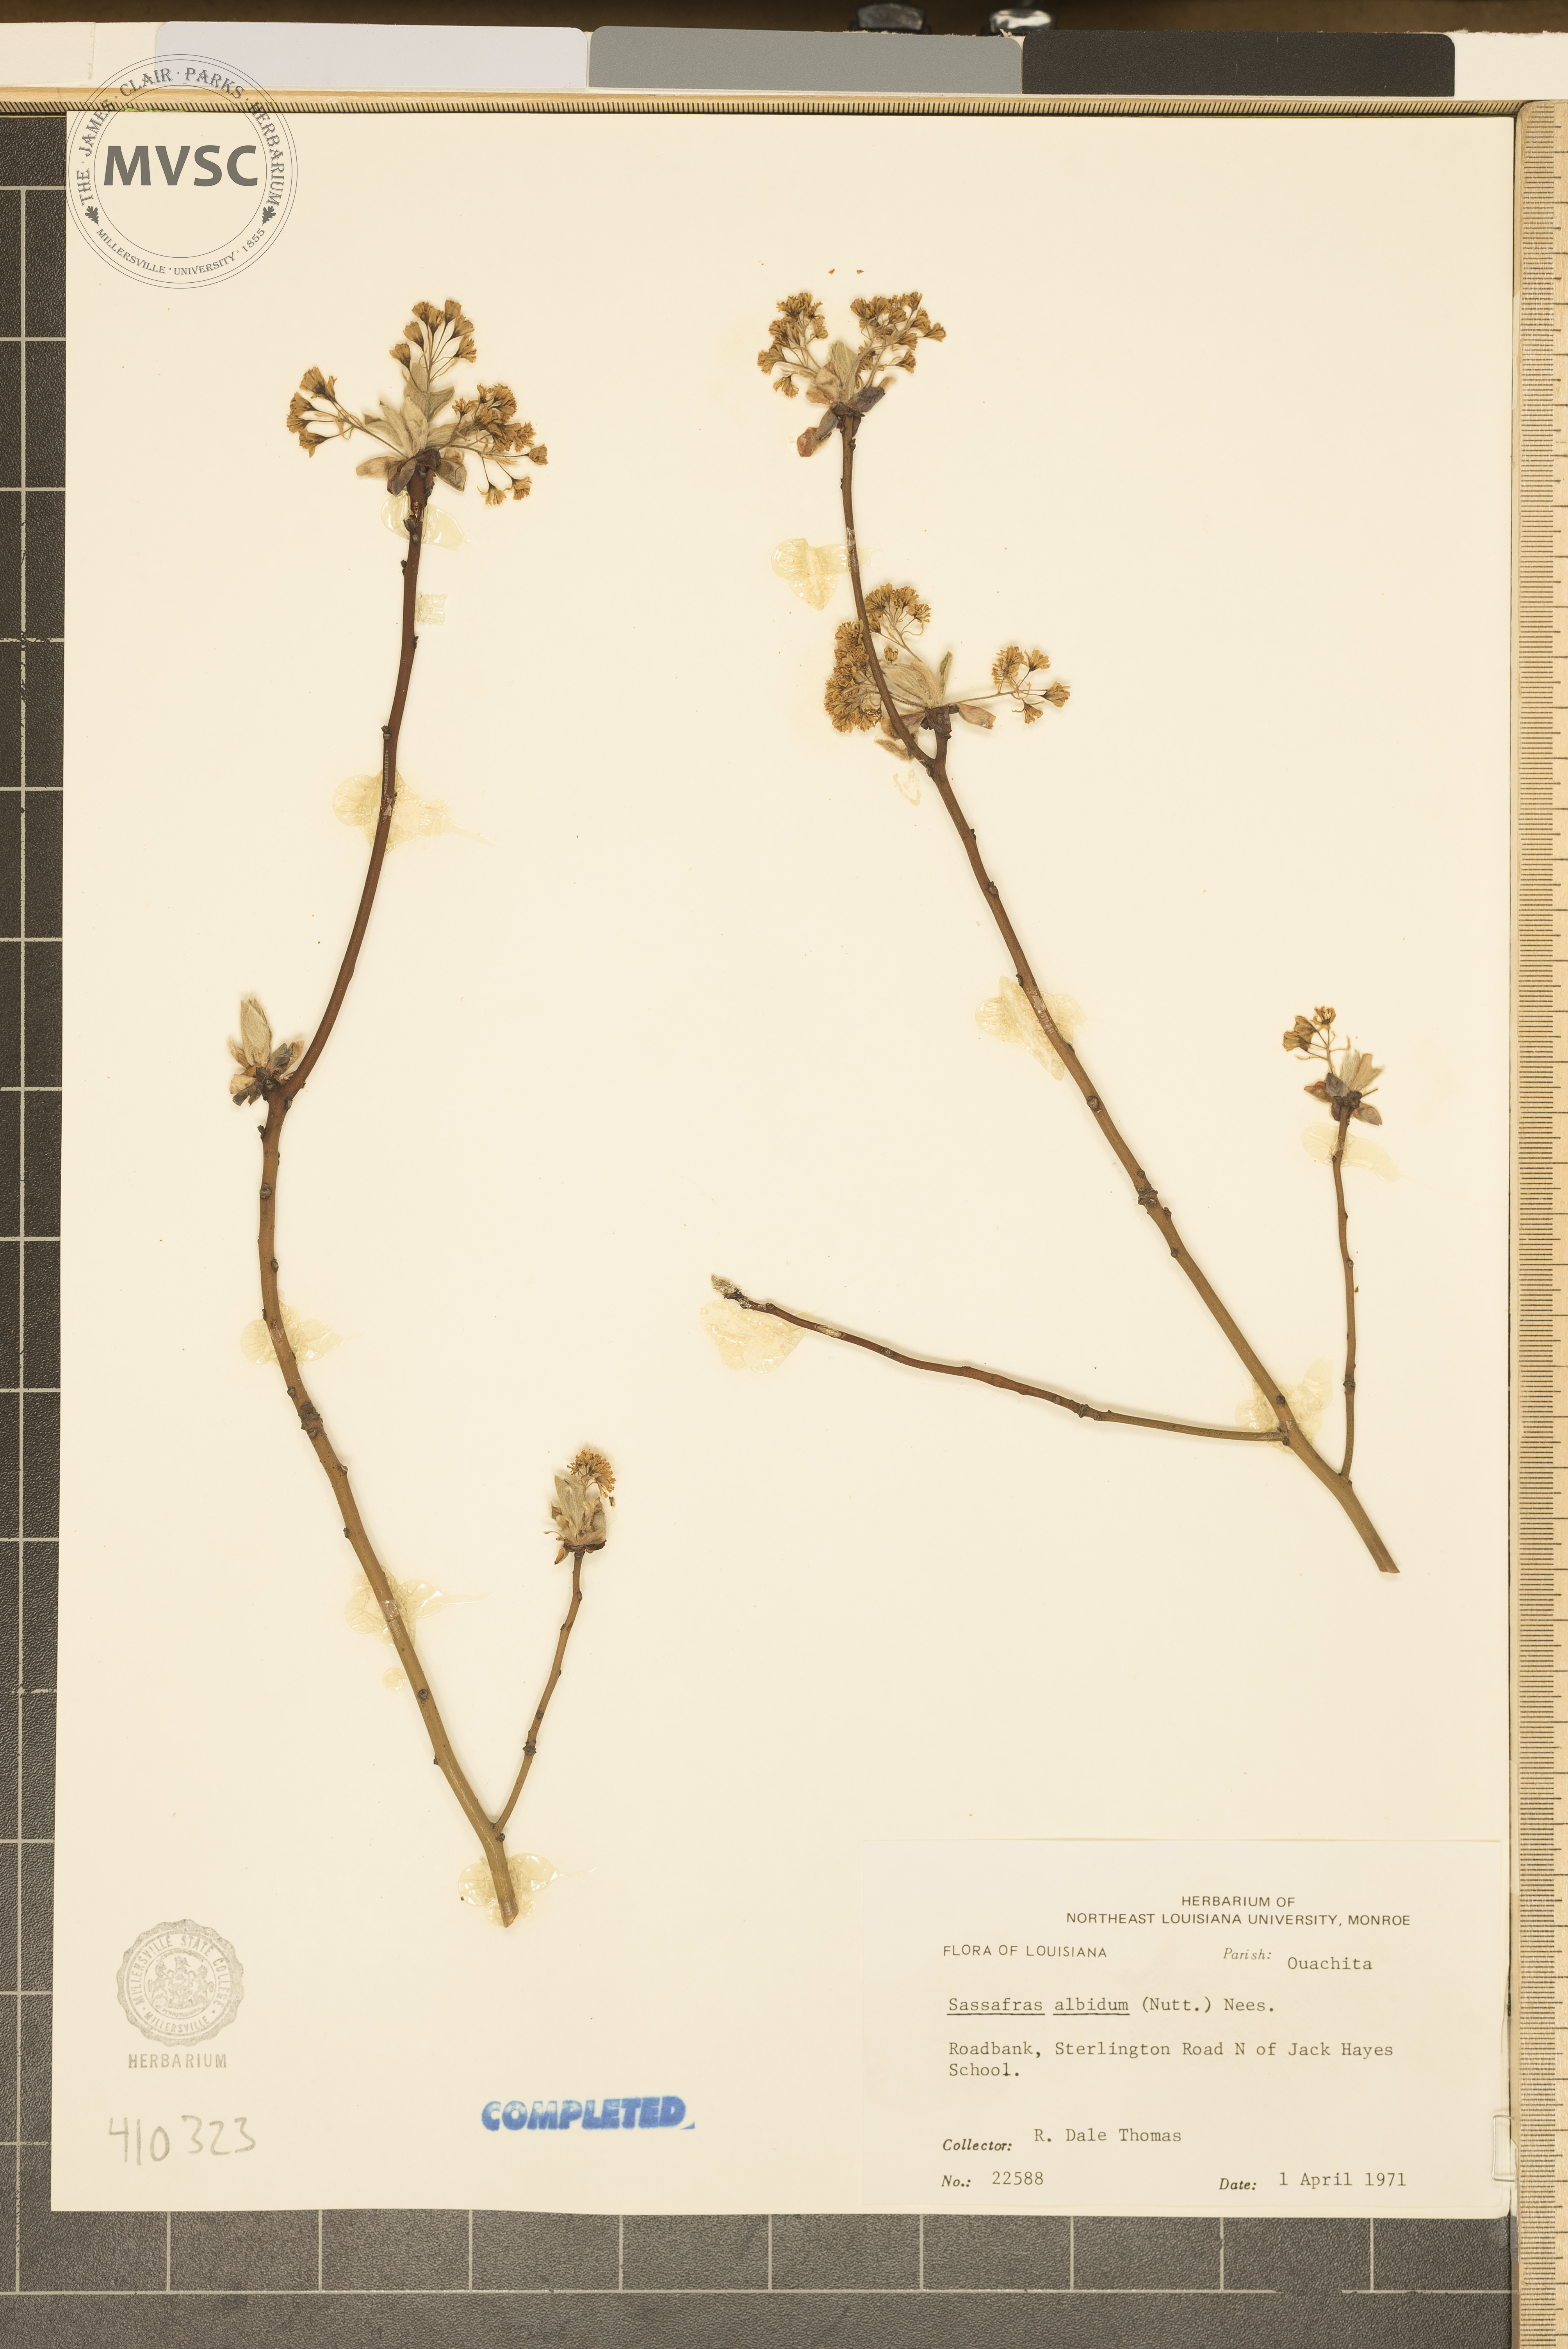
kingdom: Plantae
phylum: Tracheophyta
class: Magnoliopsida
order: Laurales
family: Lauraceae
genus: Sassafras
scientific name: Sassafras albidum
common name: Sassafras
